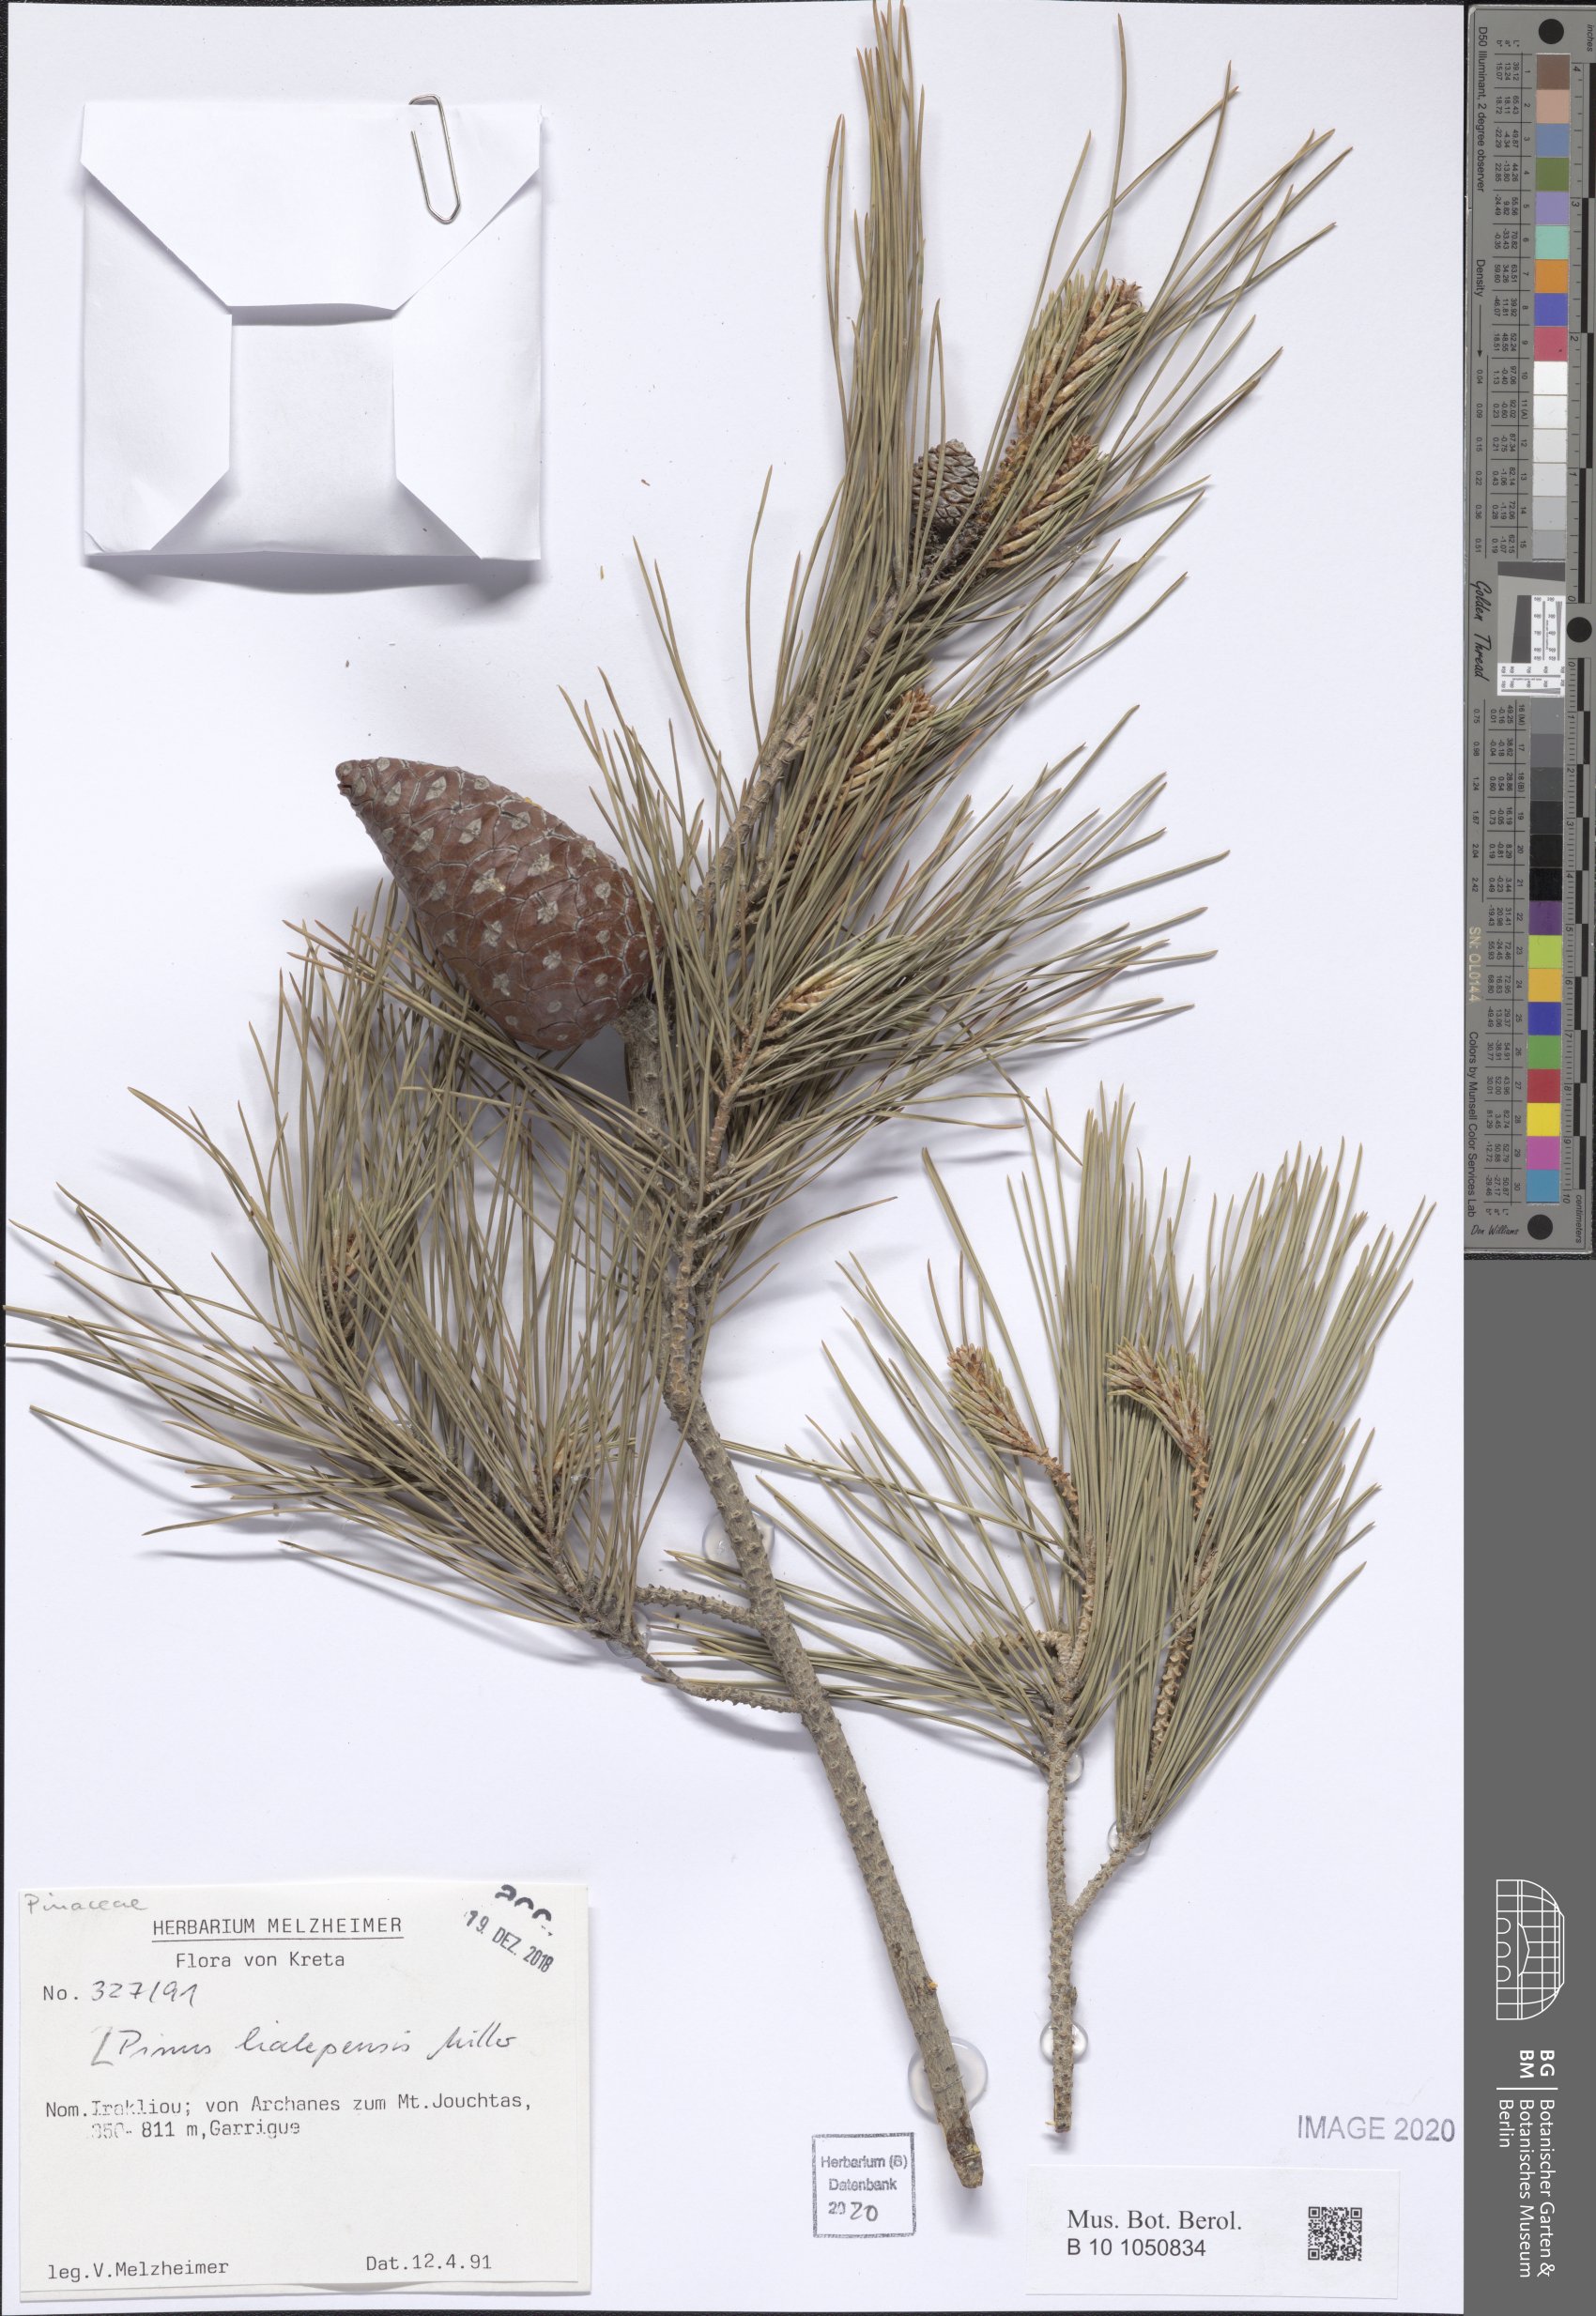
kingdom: Plantae
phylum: Tracheophyta
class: Pinopsida
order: Pinales
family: Pinaceae
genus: Pinus
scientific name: Pinus halepensis
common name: Aleppo pine
